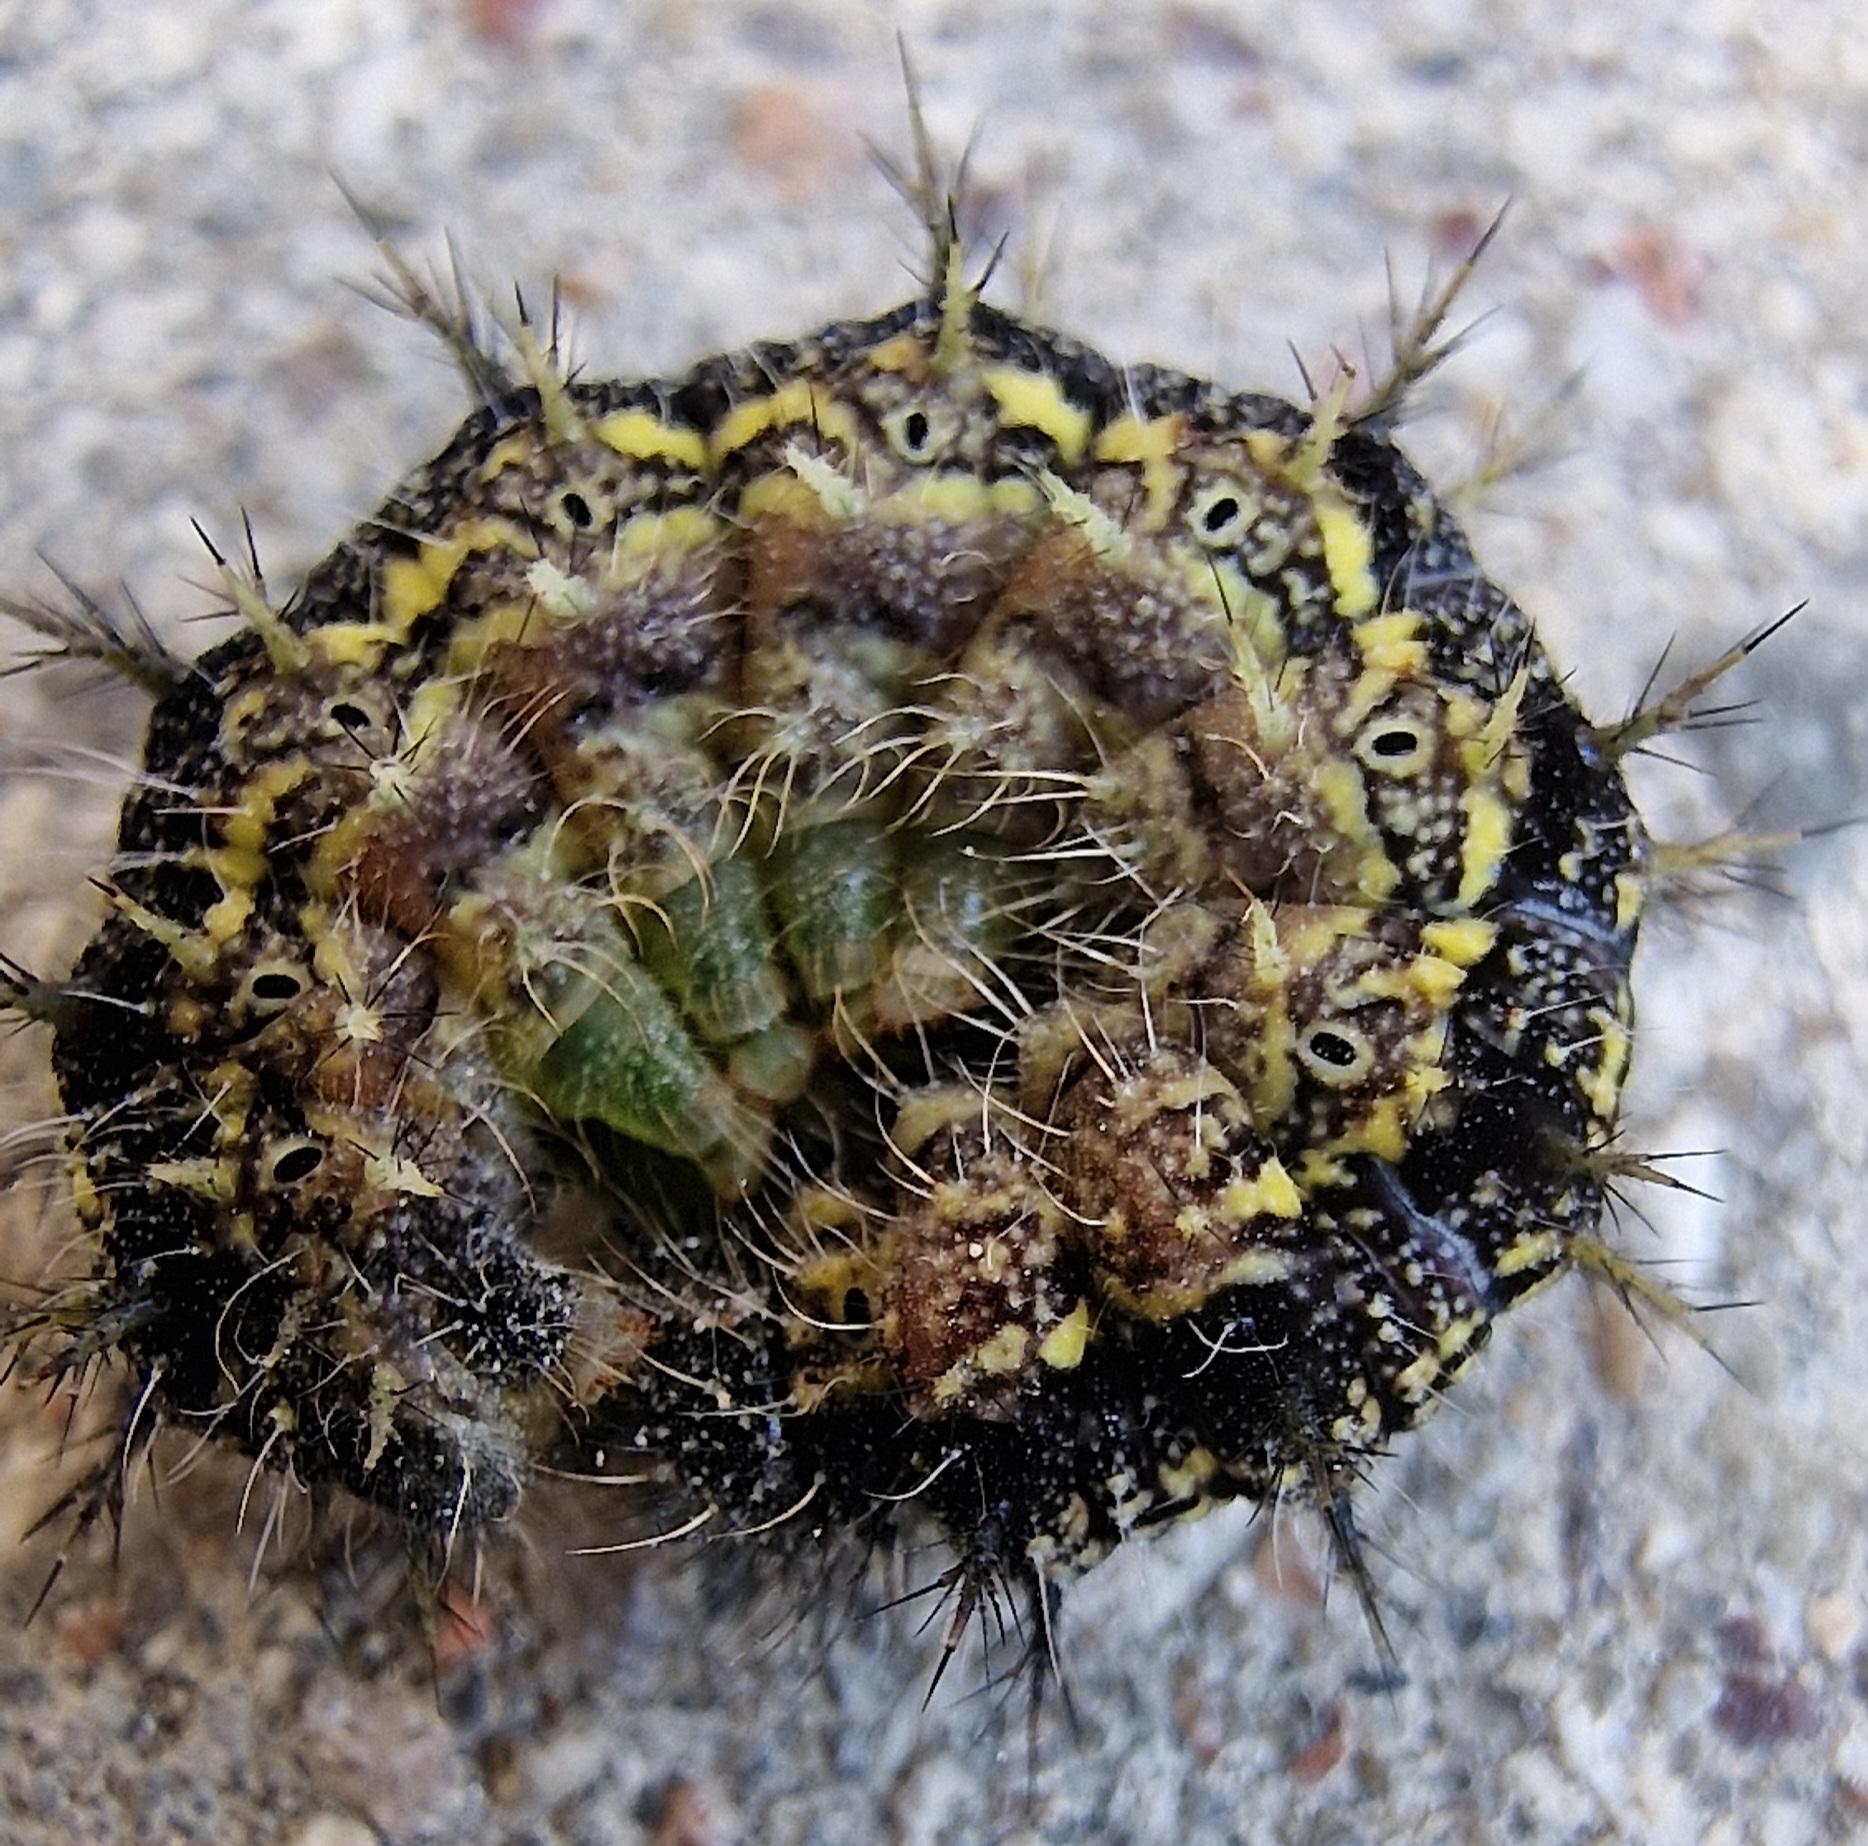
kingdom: Animalia
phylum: Arthropoda
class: Insecta
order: Lepidoptera
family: Nymphalidae
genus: Aglais
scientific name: Aglais urticae
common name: Nældens takvinge
